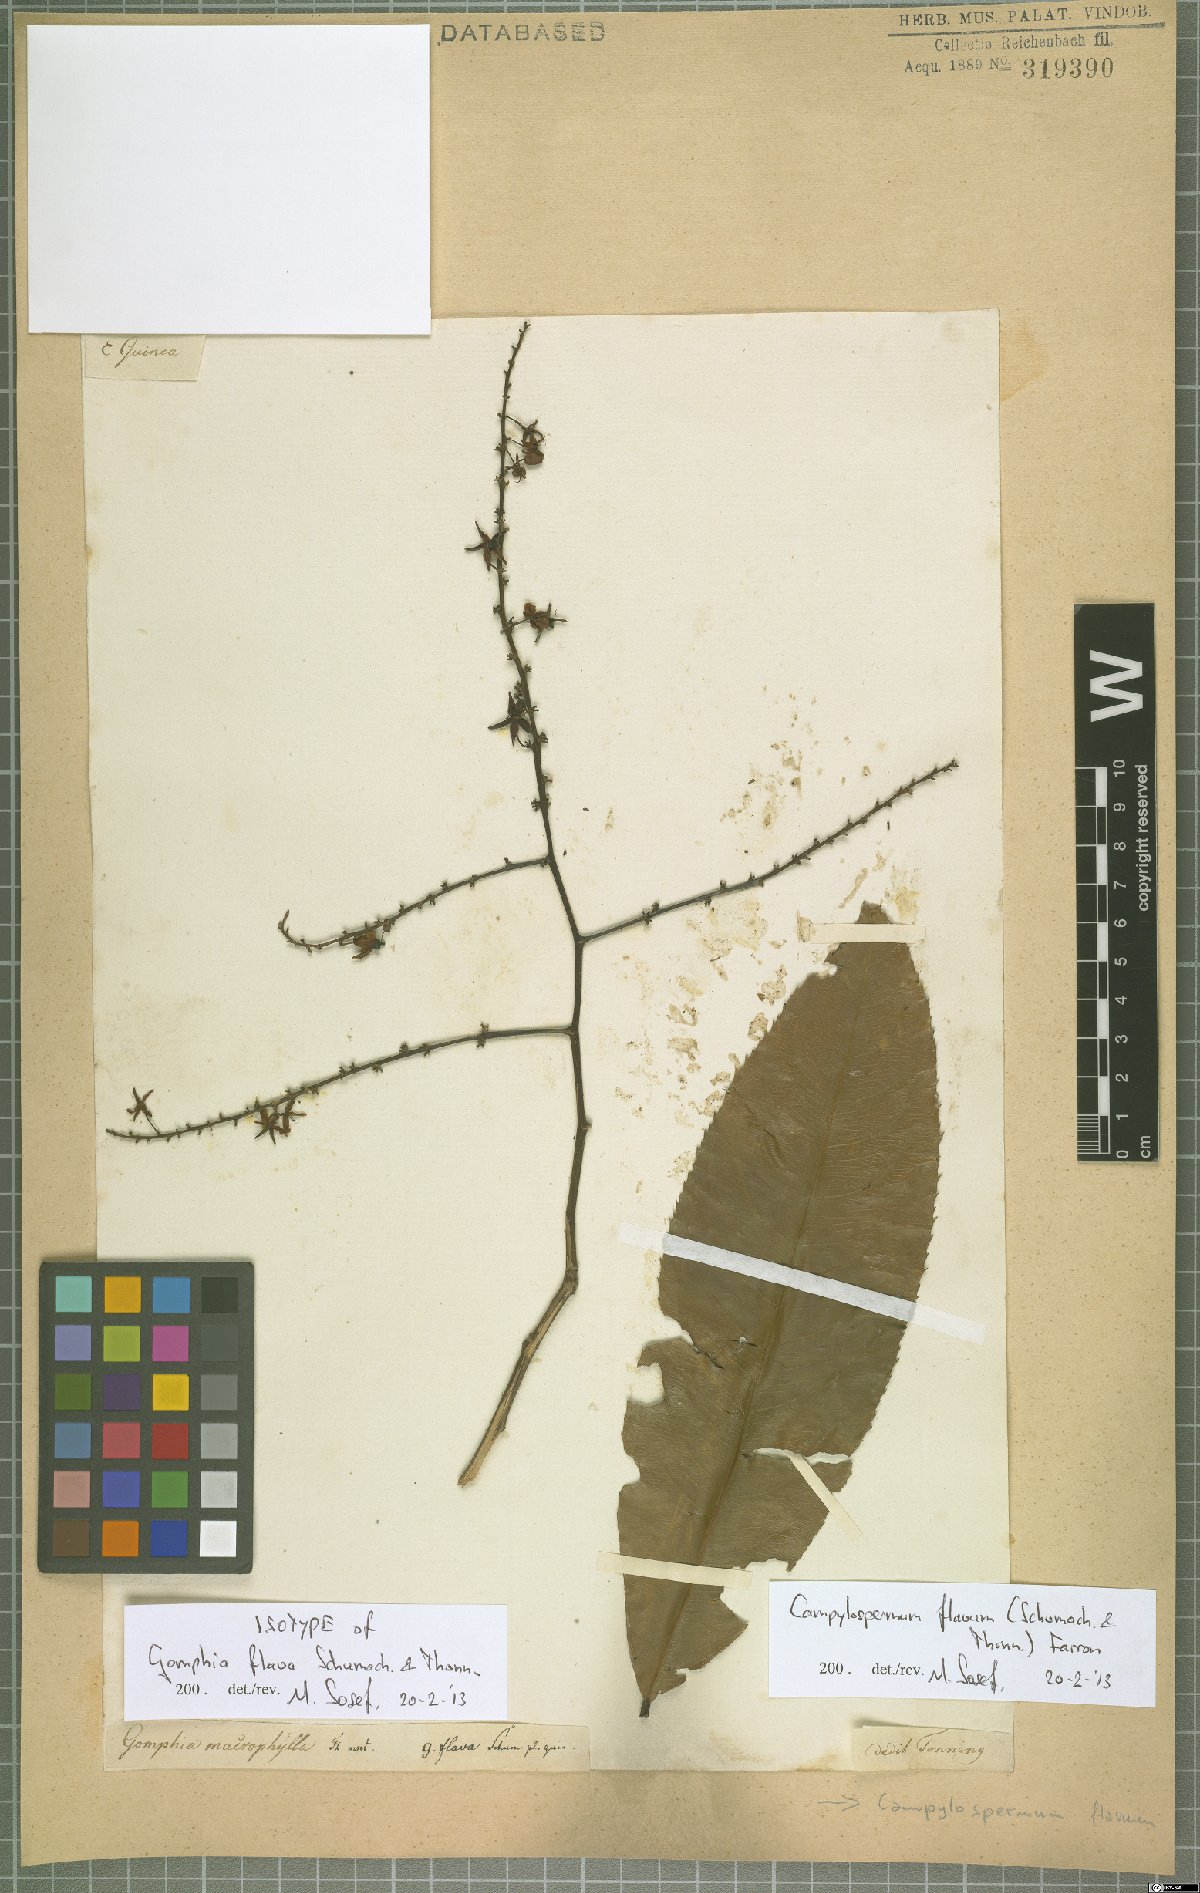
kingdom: Plantae
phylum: Tracheophyta
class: Magnoliopsida
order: Malpighiales
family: Ochnaceae
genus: Campylospermum
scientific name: Campylospermum flavum
